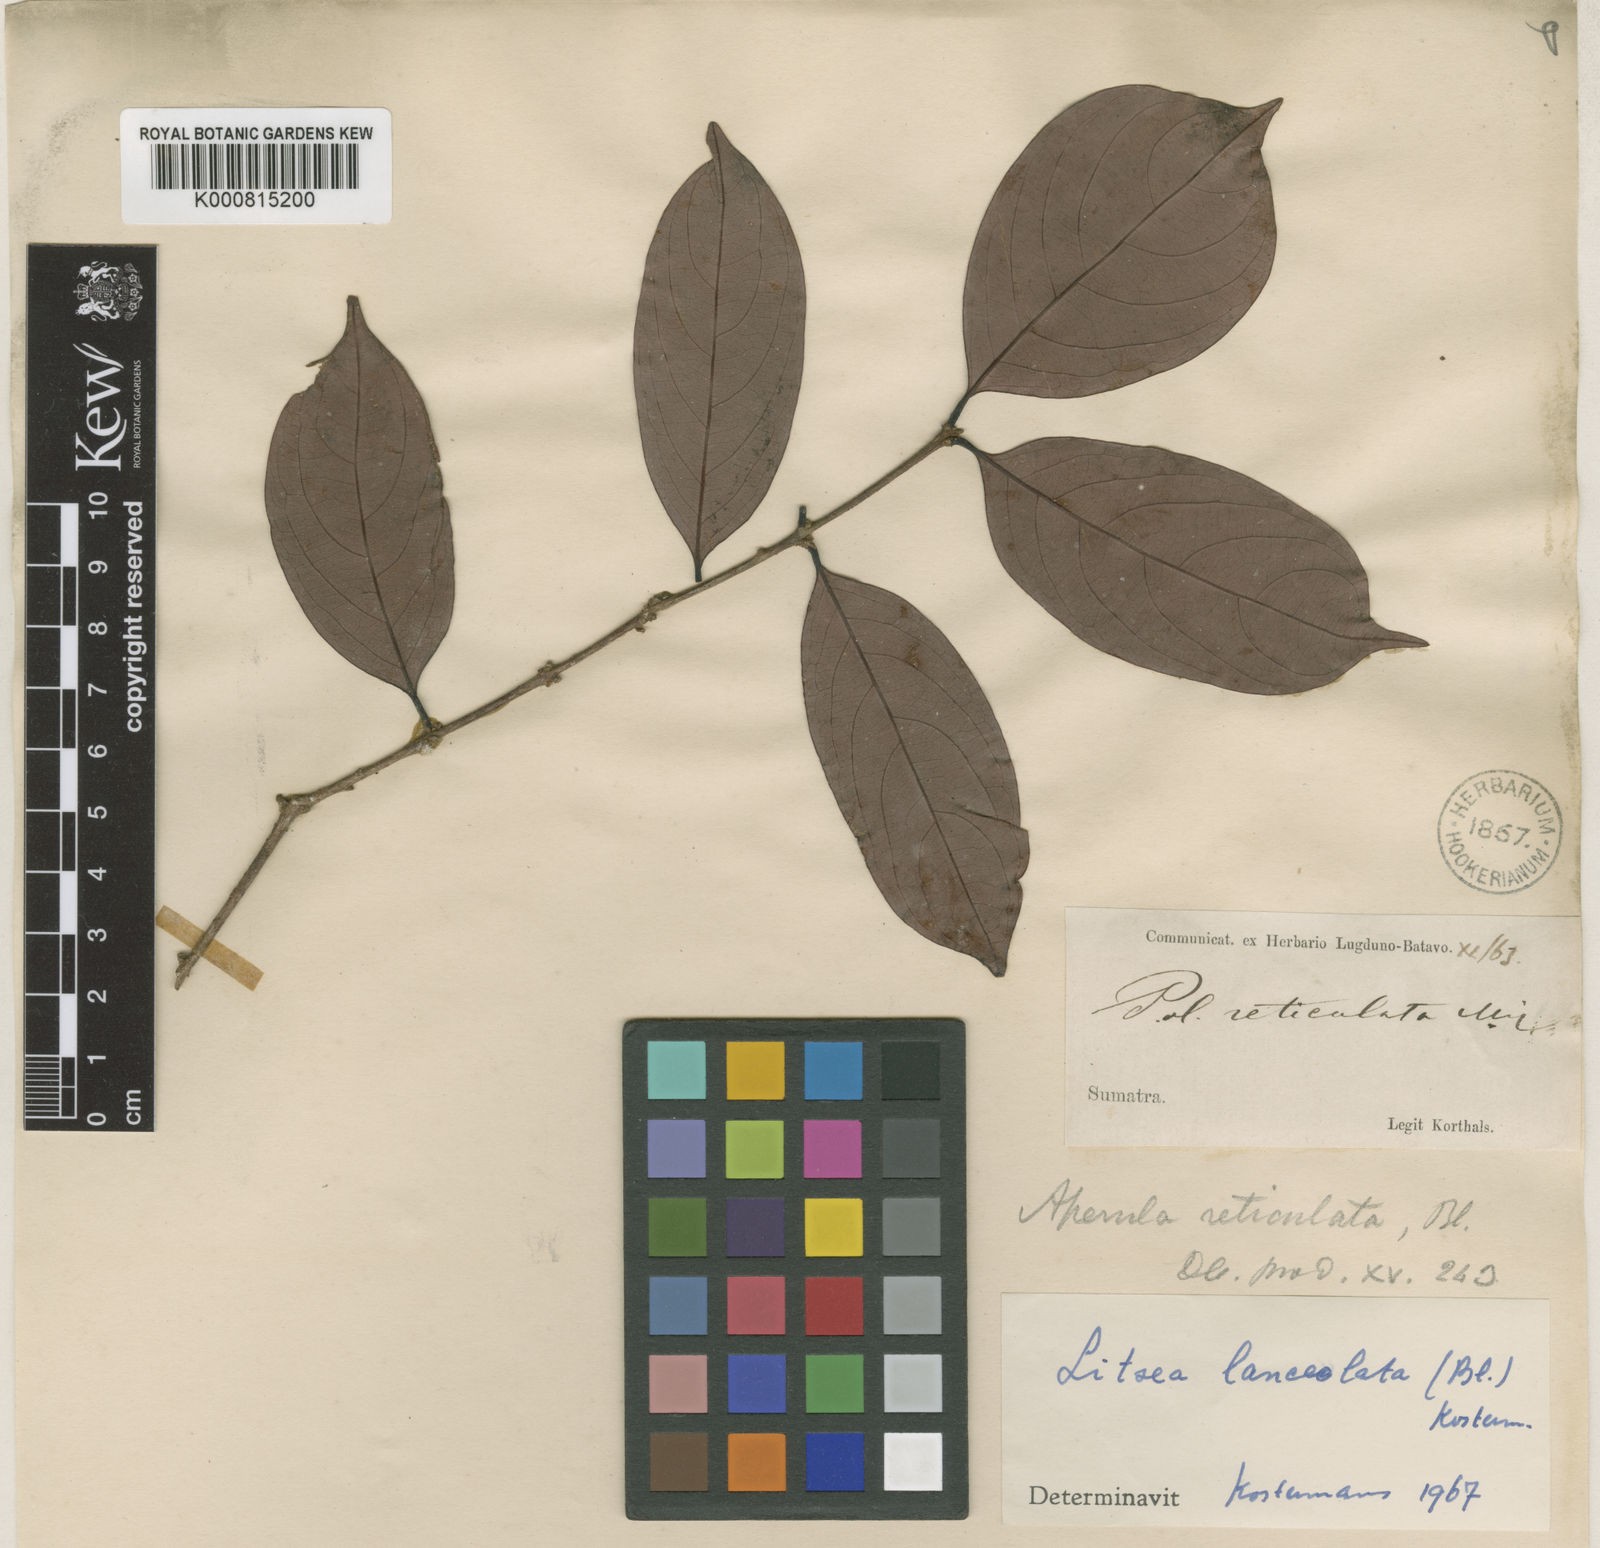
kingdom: Plantae
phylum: Tracheophyta
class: Magnoliopsida
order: Laurales
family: Lauraceae
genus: Litsea
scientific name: Litsea lanceolata
